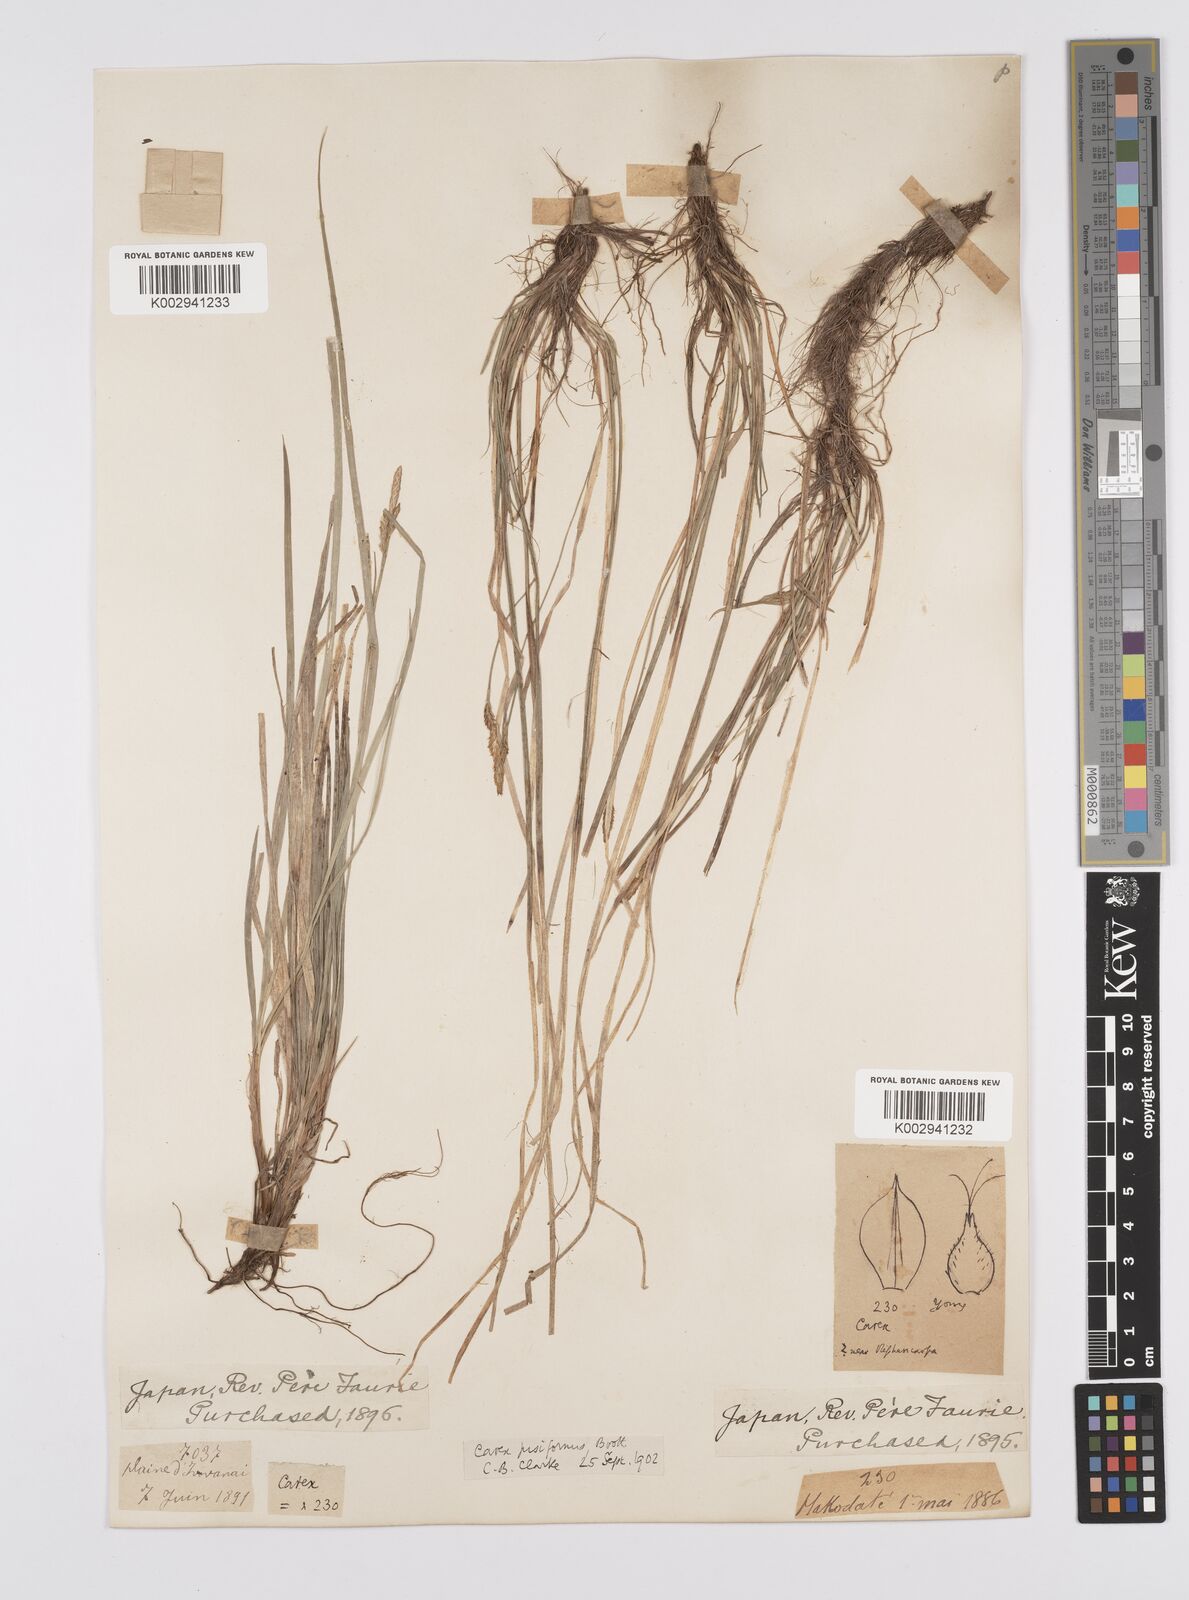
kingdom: Plantae
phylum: Tracheophyta
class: Liliopsida
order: Poales
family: Cyperaceae
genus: Carex
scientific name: Carex pisiformis
